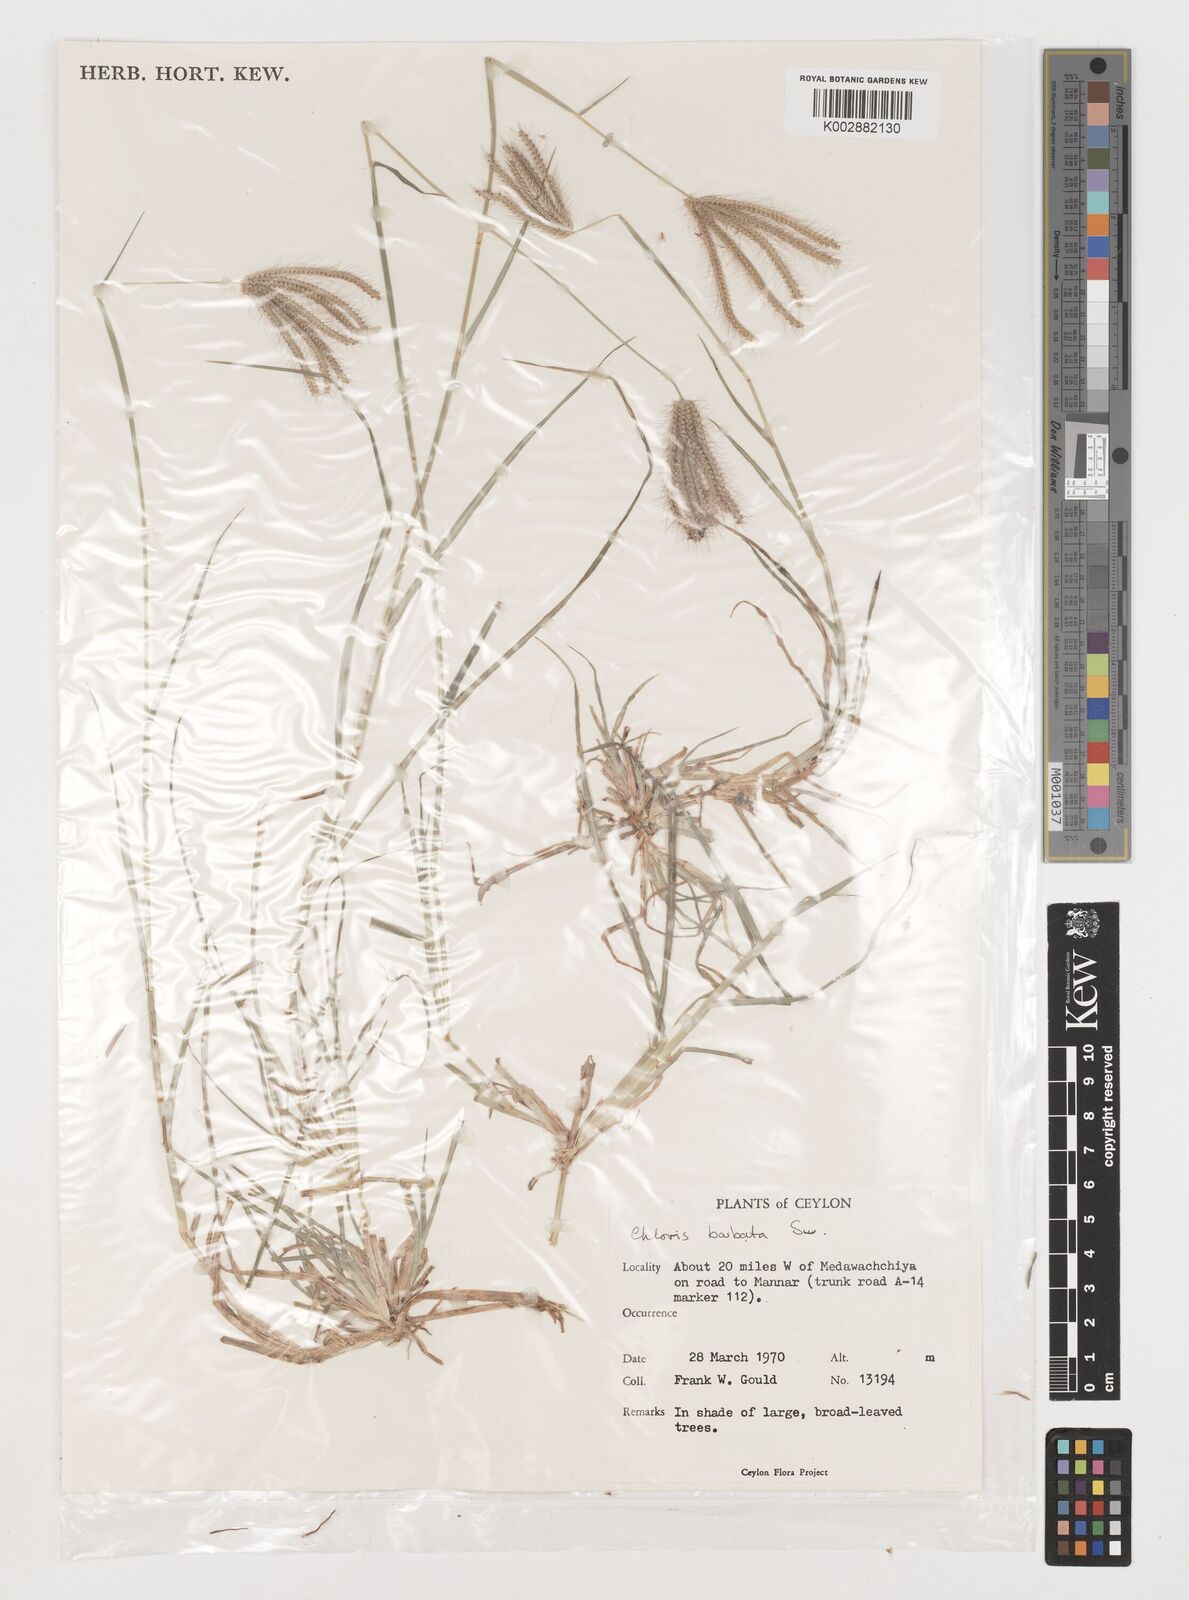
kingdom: Plantae
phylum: Tracheophyta
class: Liliopsida
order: Poales
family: Poaceae
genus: Chloris
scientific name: Chloris barbata
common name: Swollen fingergrass
